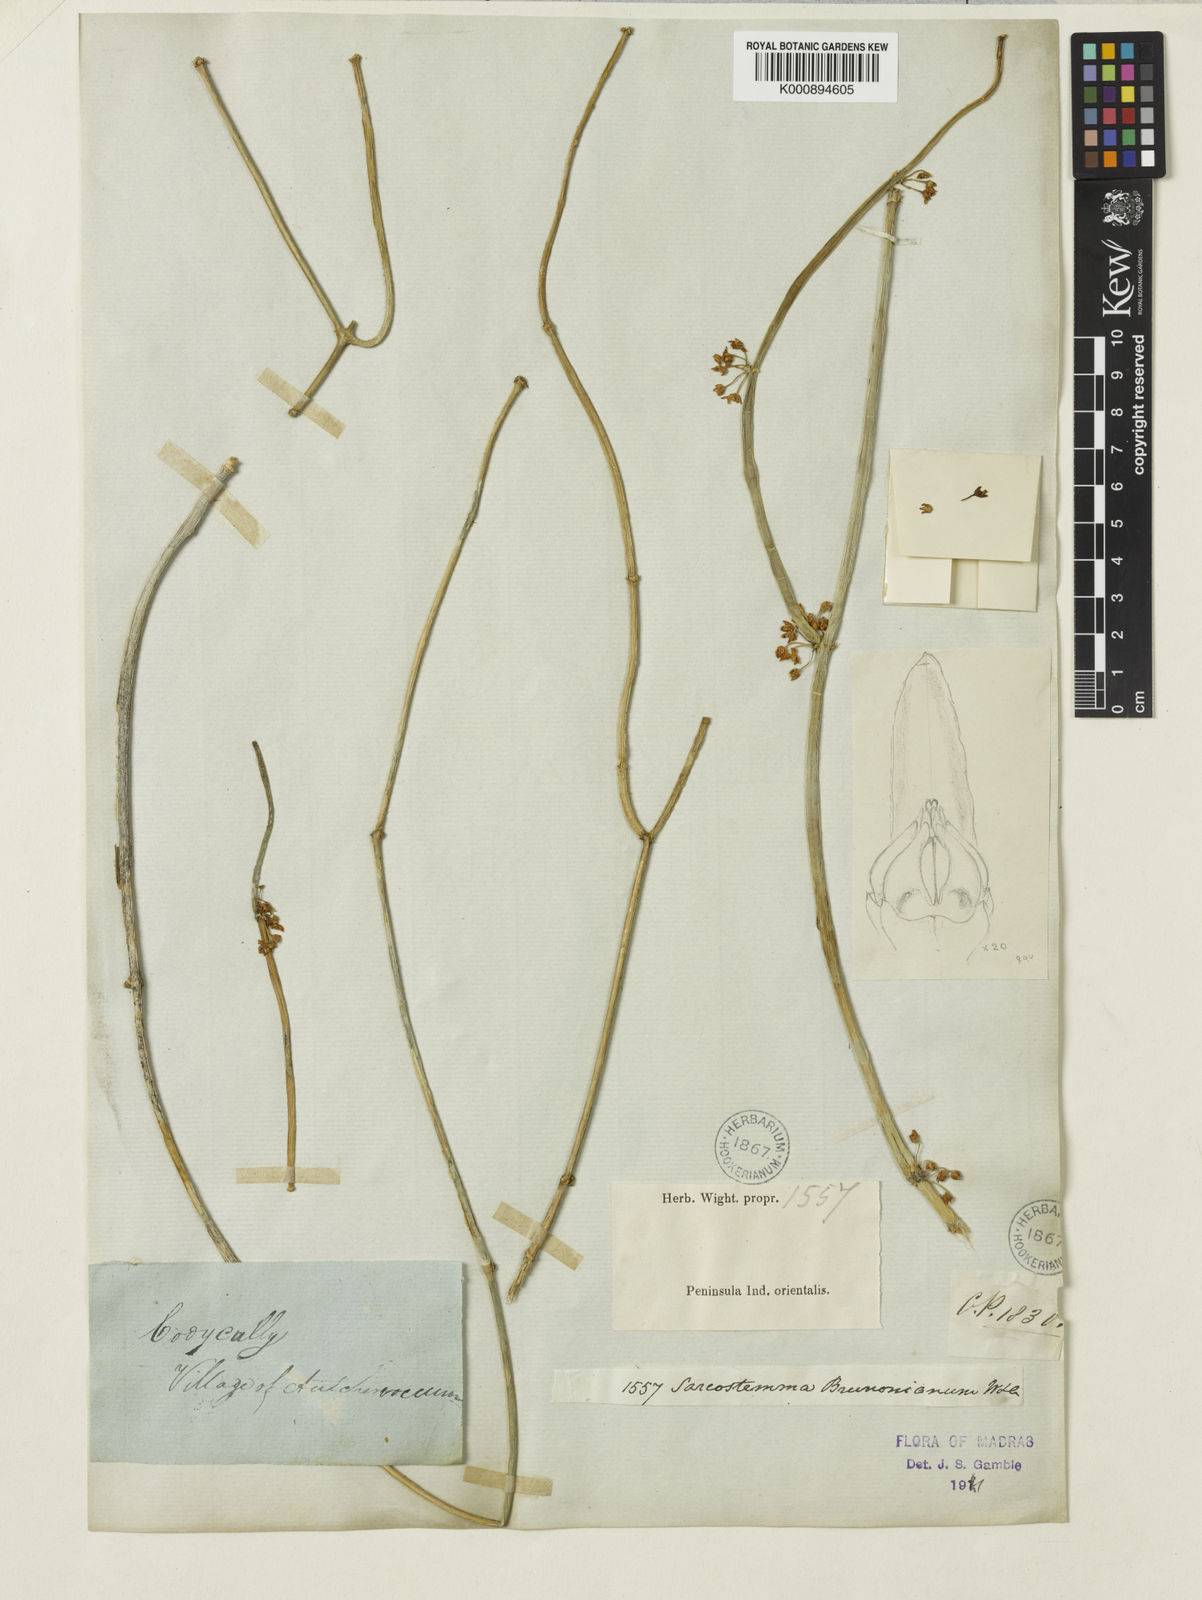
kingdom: Plantae
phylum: Tracheophyta
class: Magnoliopsida
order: Gentianales
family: Apocynaceae
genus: Cynanchum
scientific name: Cynanchum viminale
